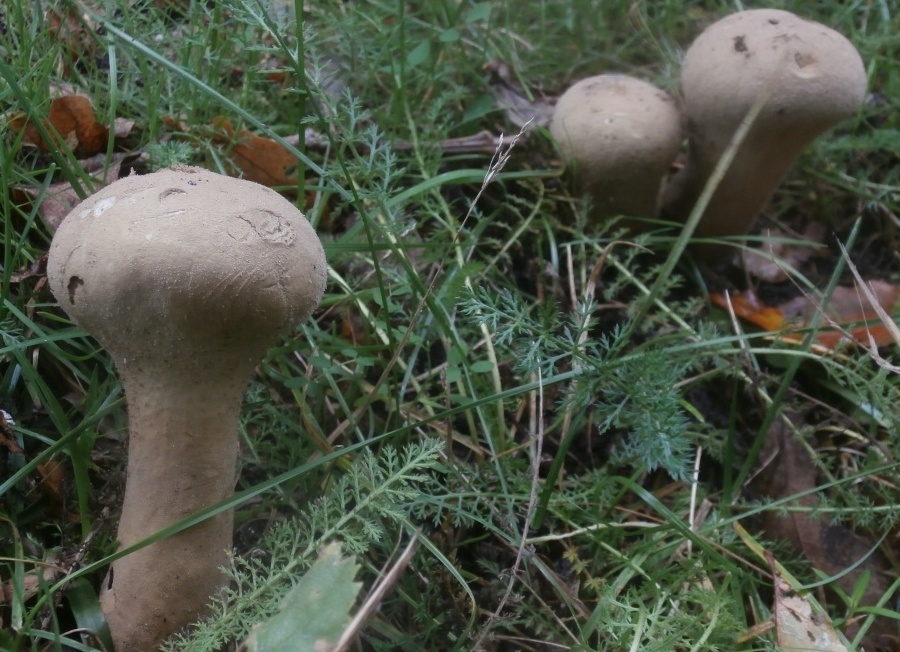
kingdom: Fungi
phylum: Basidiomycota
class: Agaricomycetes
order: Agaricales
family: Lycoperdaceae
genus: Lycoperdon
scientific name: Lycoperdon excipuliforme
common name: højstokket støvbold
